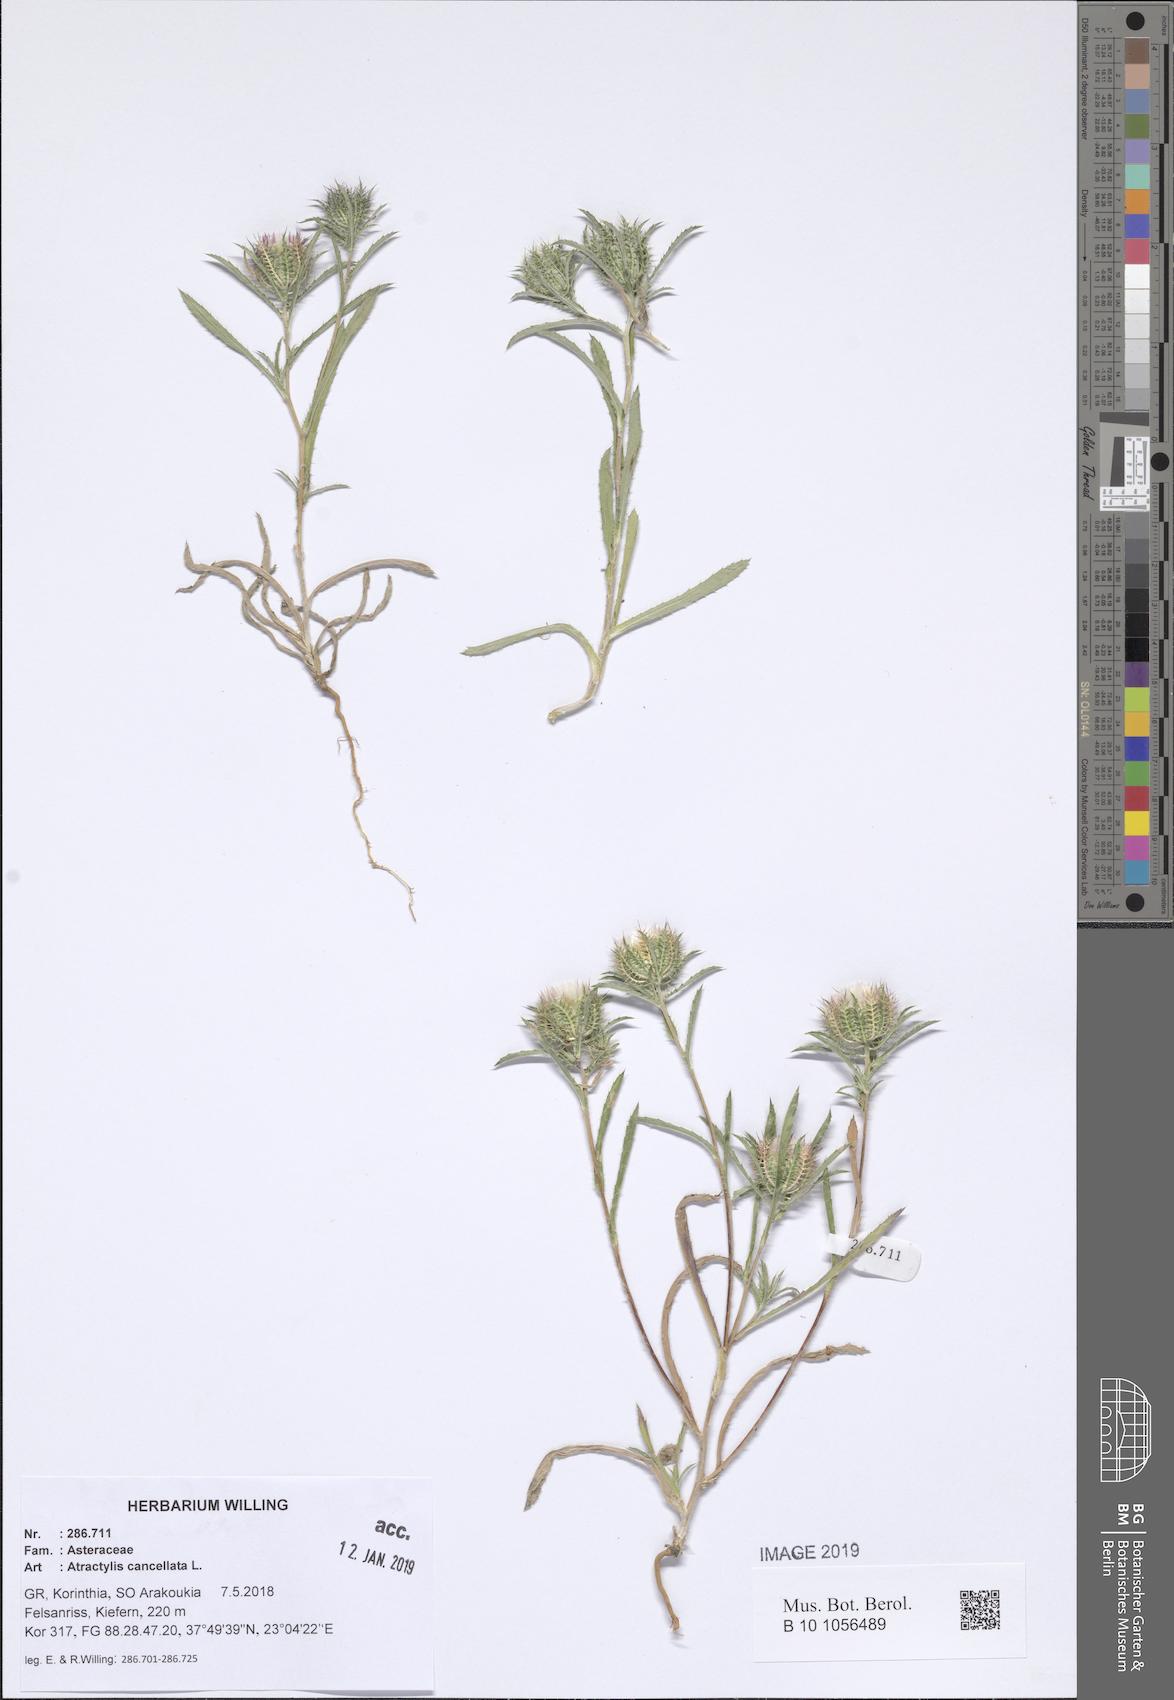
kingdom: Plantae
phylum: Tracheophyta
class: Magnoliopsida
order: Asterales
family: Asteraceae
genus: Atractylis
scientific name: Atractylis cancellata
